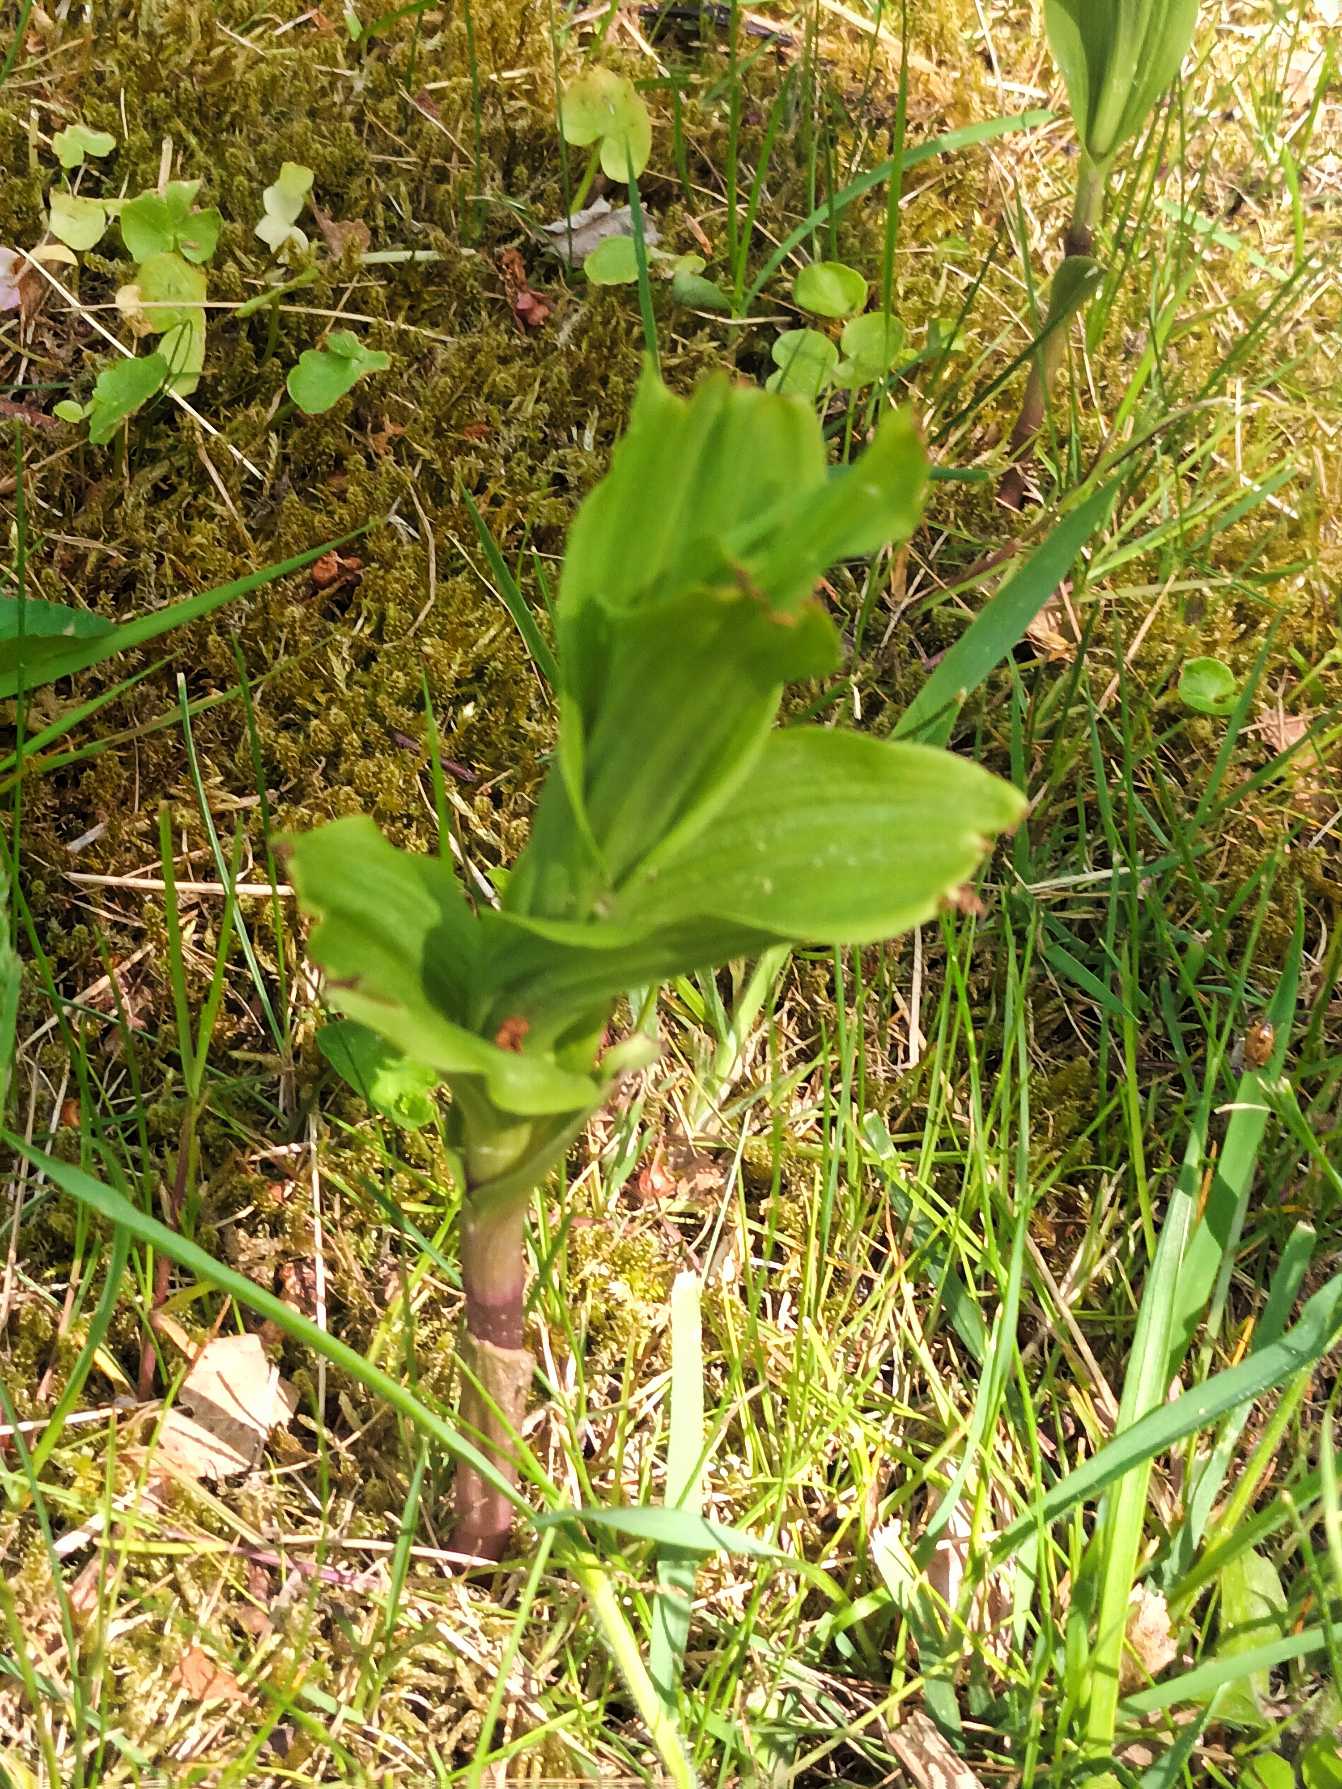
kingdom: Plantae
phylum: Tracheophyta
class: Liliopsida
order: Asparagales
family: Orchidaceae
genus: Epipactis
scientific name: Epipactis helleborine
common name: Skov-hullæbe
